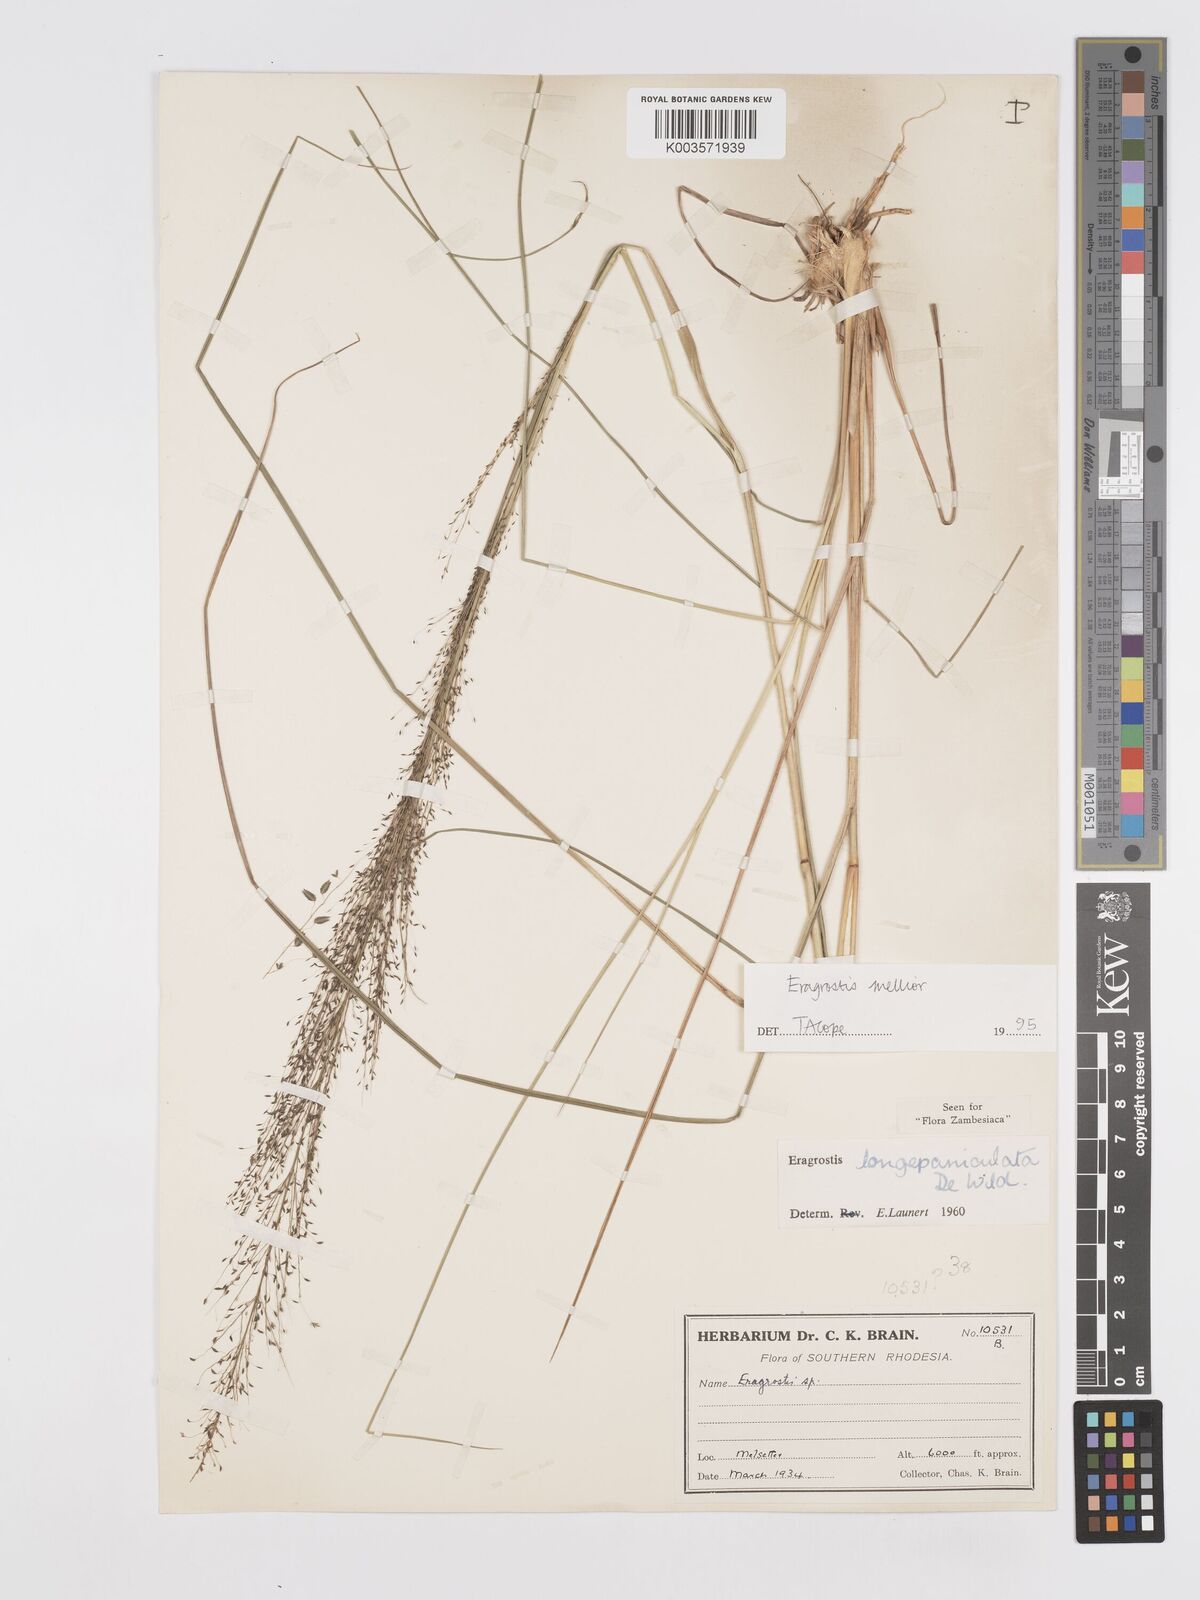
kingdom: Plantae
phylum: Tracheophyta
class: Liliopsida
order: Poales
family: Poaceae
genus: Eragrostis
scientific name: Eragrostis mollior
